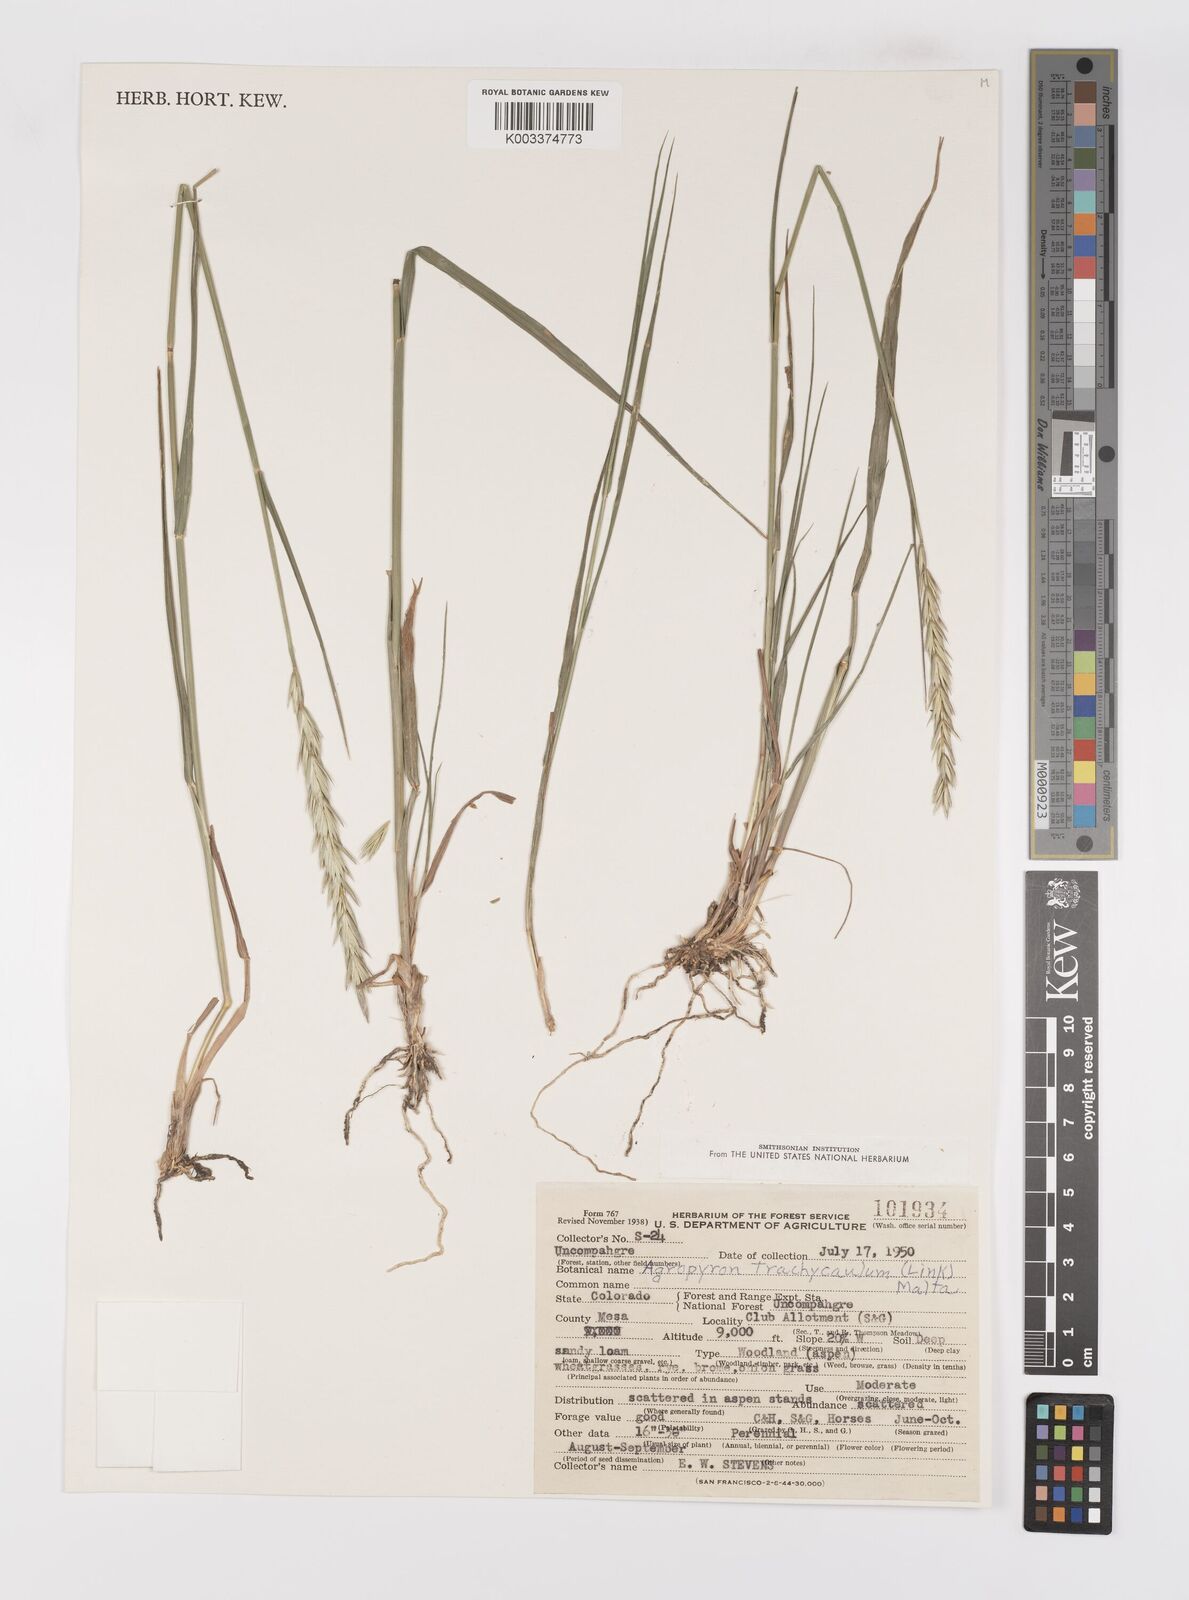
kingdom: Plantae
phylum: Tracheophyta
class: Liliopsida
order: Poales
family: Poaceae
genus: Elymus
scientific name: Elymus violaceus
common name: Arctic wheatgrass
